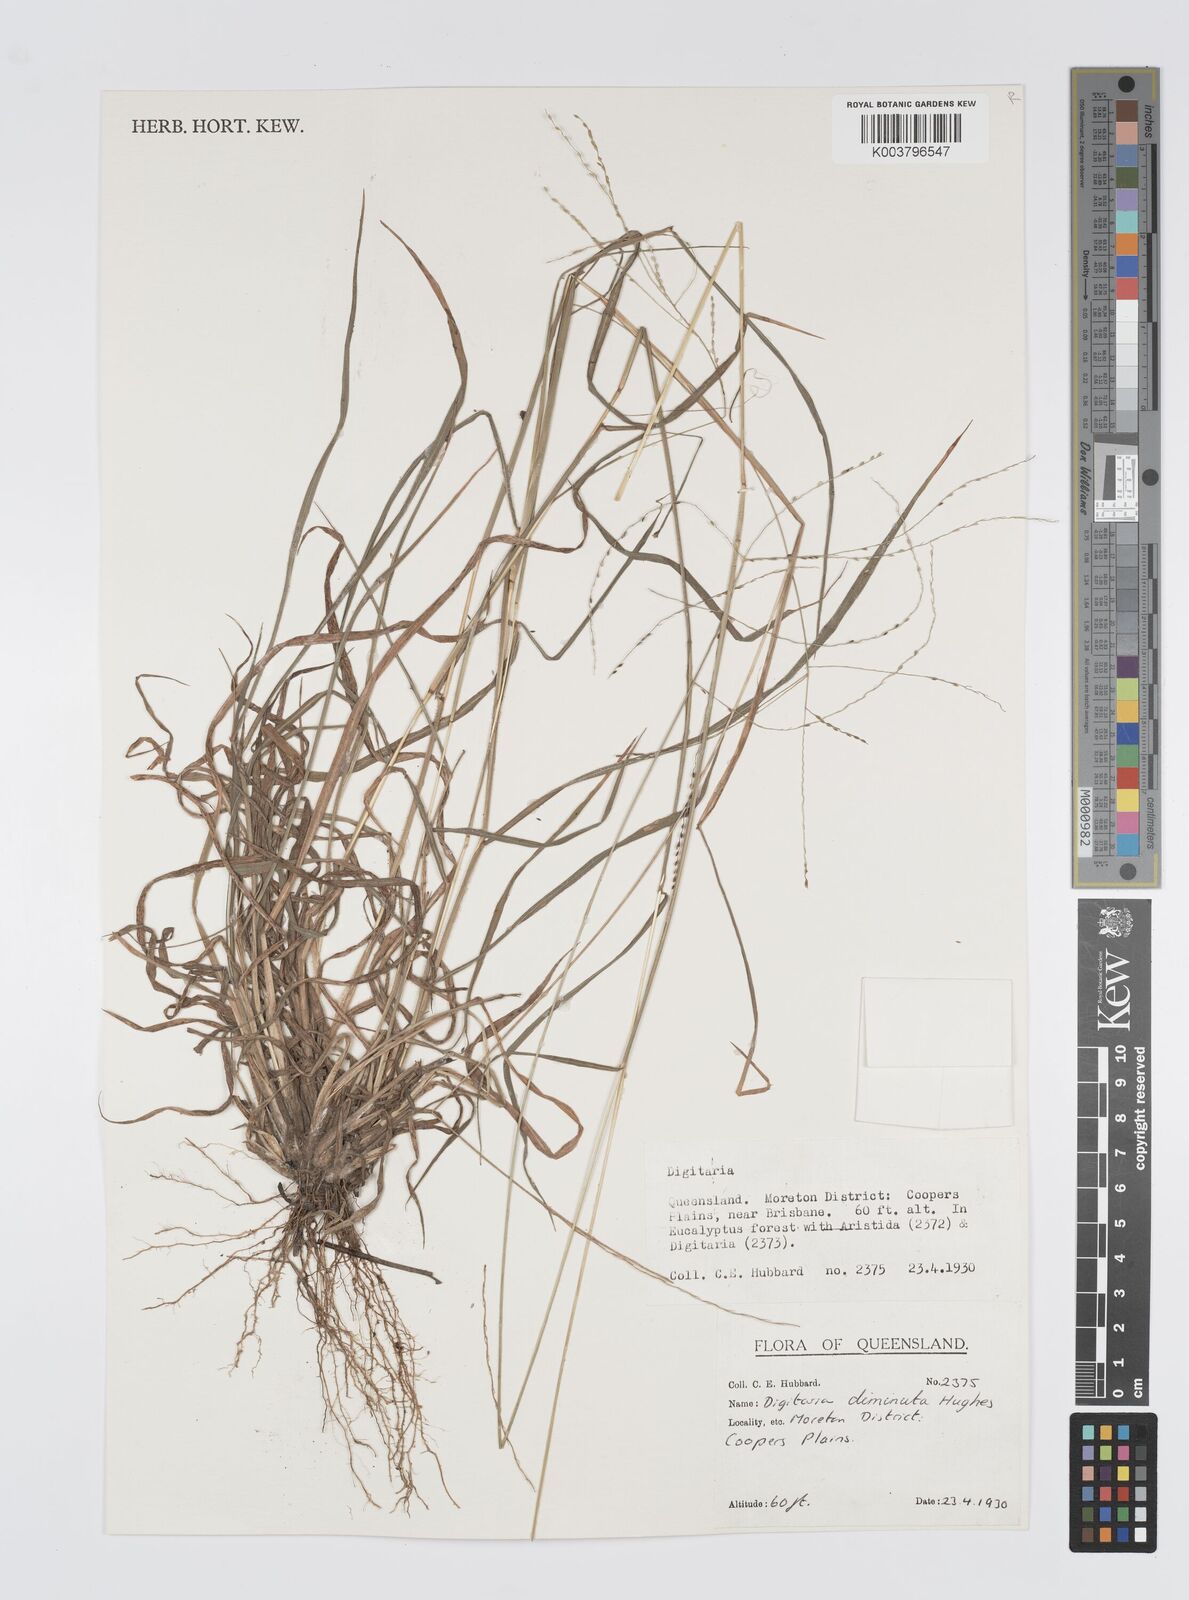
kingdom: Plantae
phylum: Tracheophyta
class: Liliopsida
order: Poales
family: Poaceae
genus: Digitaria
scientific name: Digitaria breviglumis
